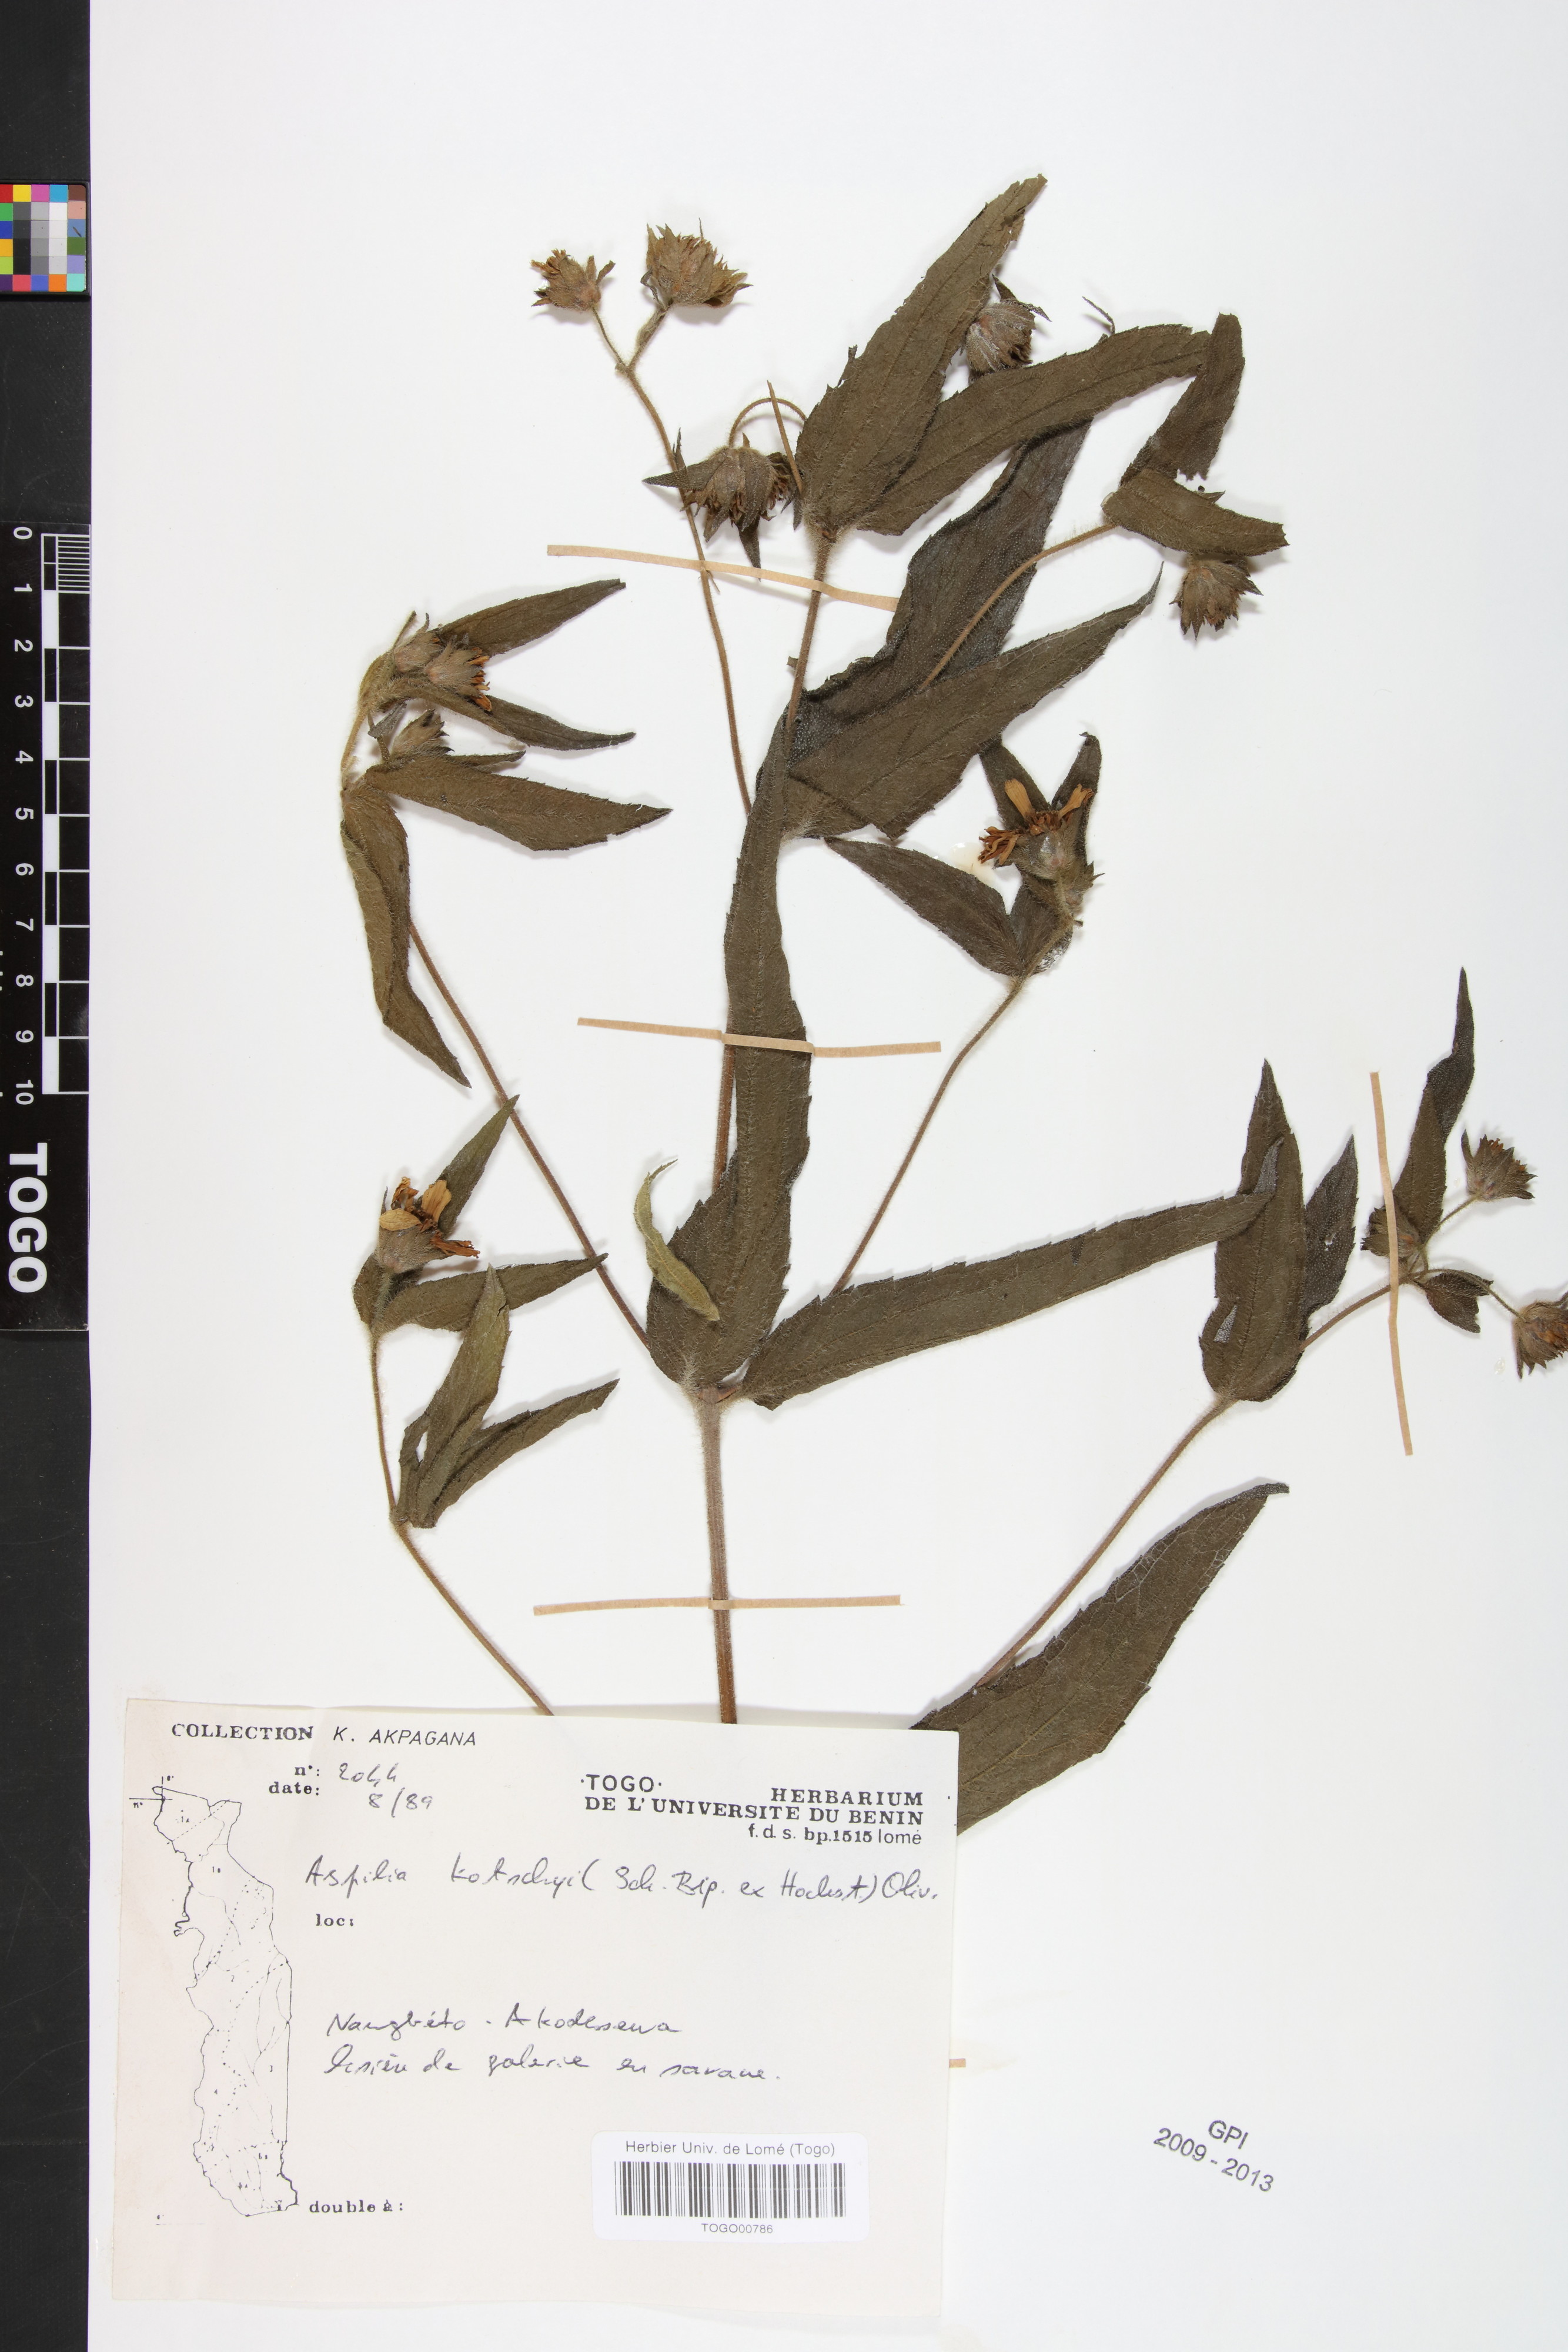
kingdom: Plantae
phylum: Tracheophyta
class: Magnoliopsida
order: Asterales
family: Asteraceae
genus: Aspilia
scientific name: Aspilia kotschyi
